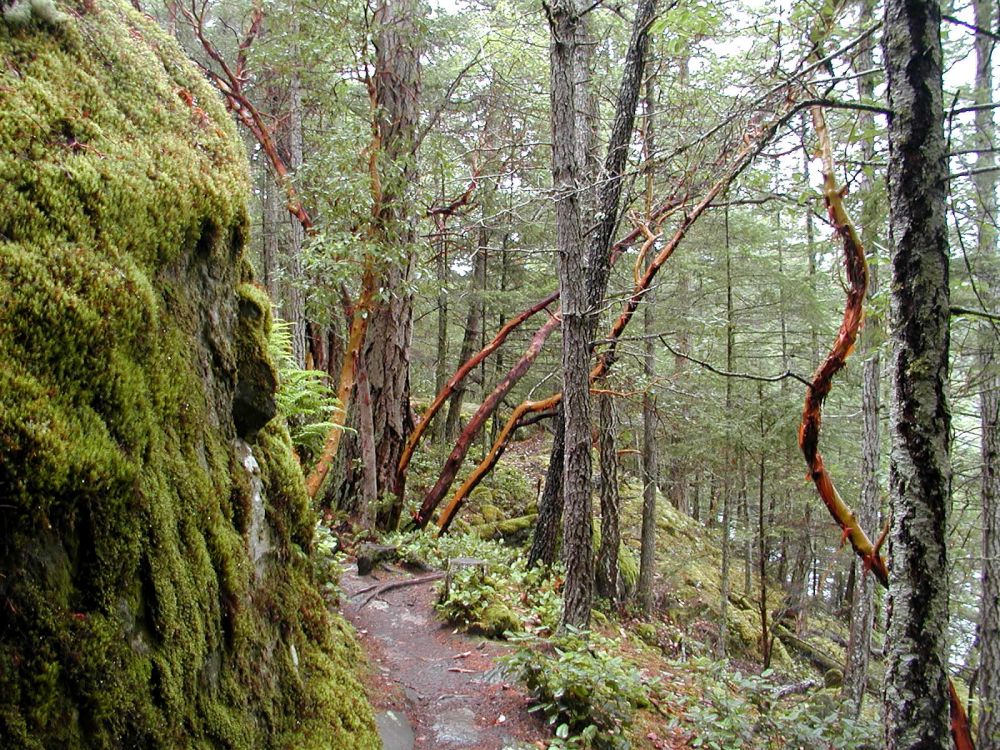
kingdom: Plantae
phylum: Tracheophyta
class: Magnoliopsida
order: Ericales
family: Ericaceae
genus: Arbutus
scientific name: Arbutus menziesii
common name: Pacific madrone
